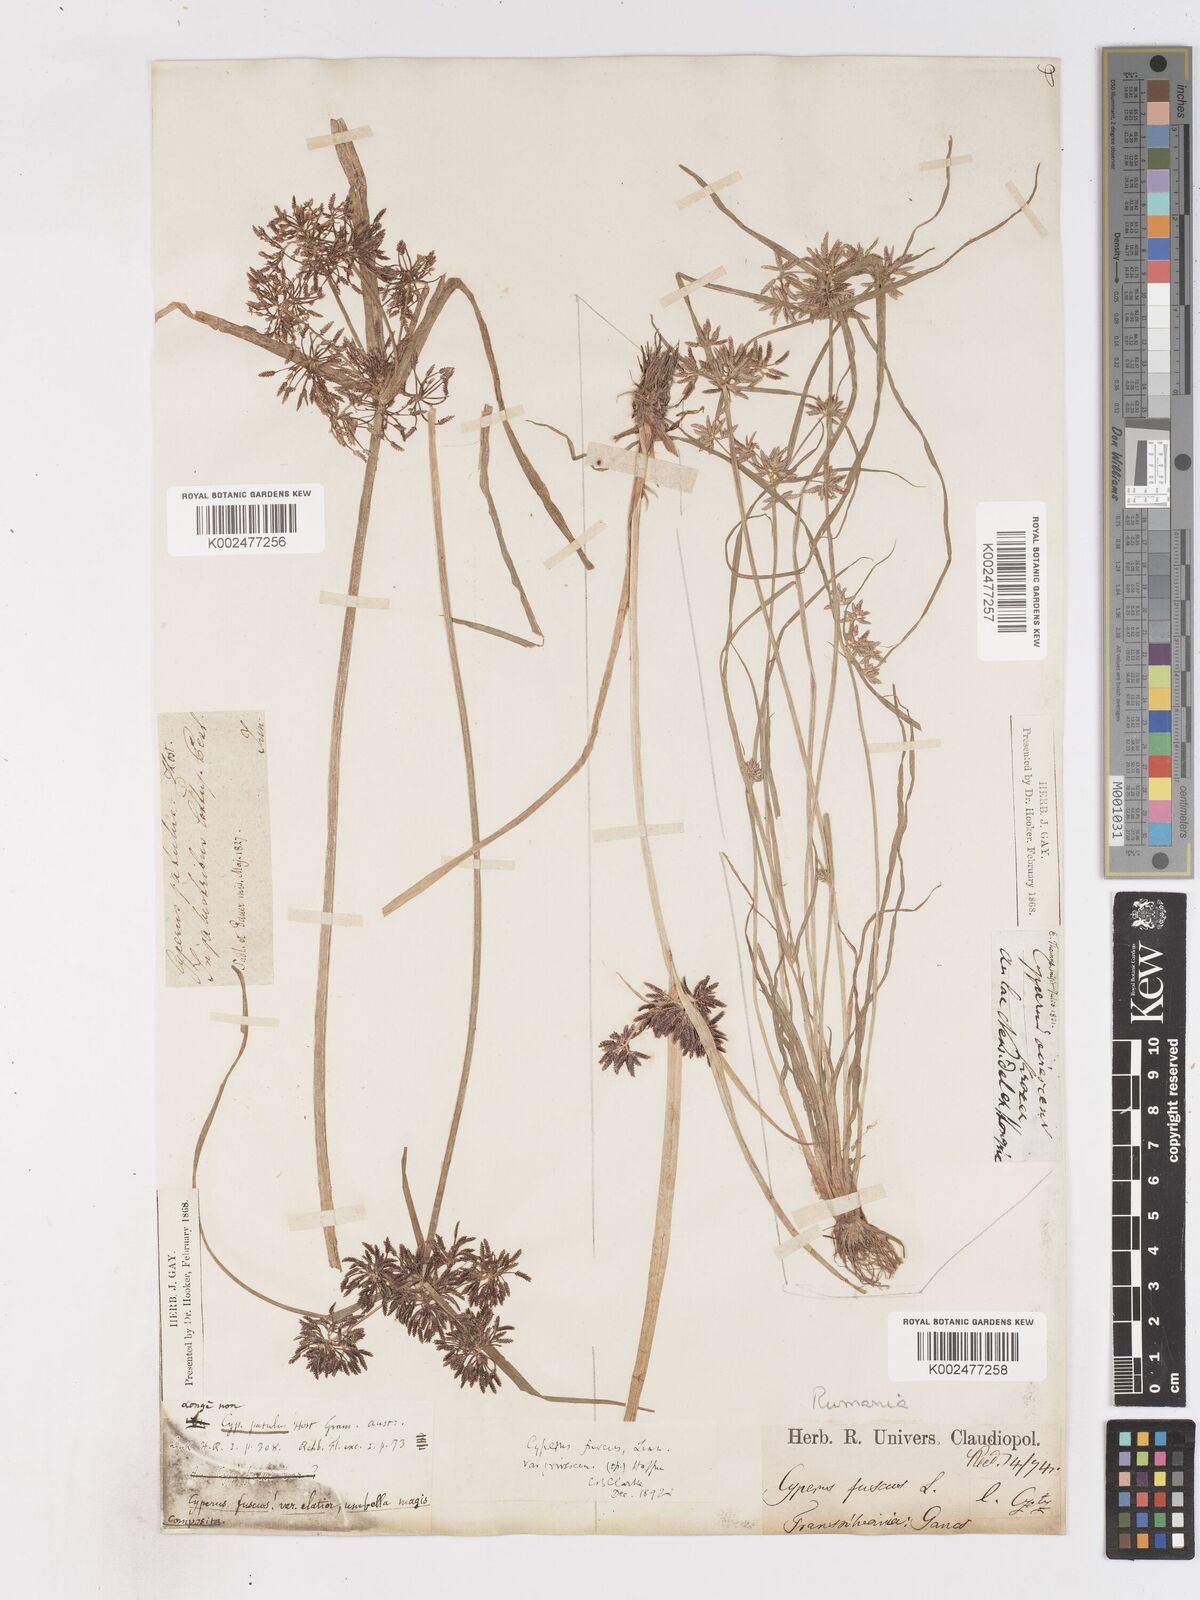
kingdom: Plantae
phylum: Tracheophyta
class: Liliopsida
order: Poales
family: Cyperaceae
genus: Cyperus
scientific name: Cyperus fuscus
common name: Brown galingale
